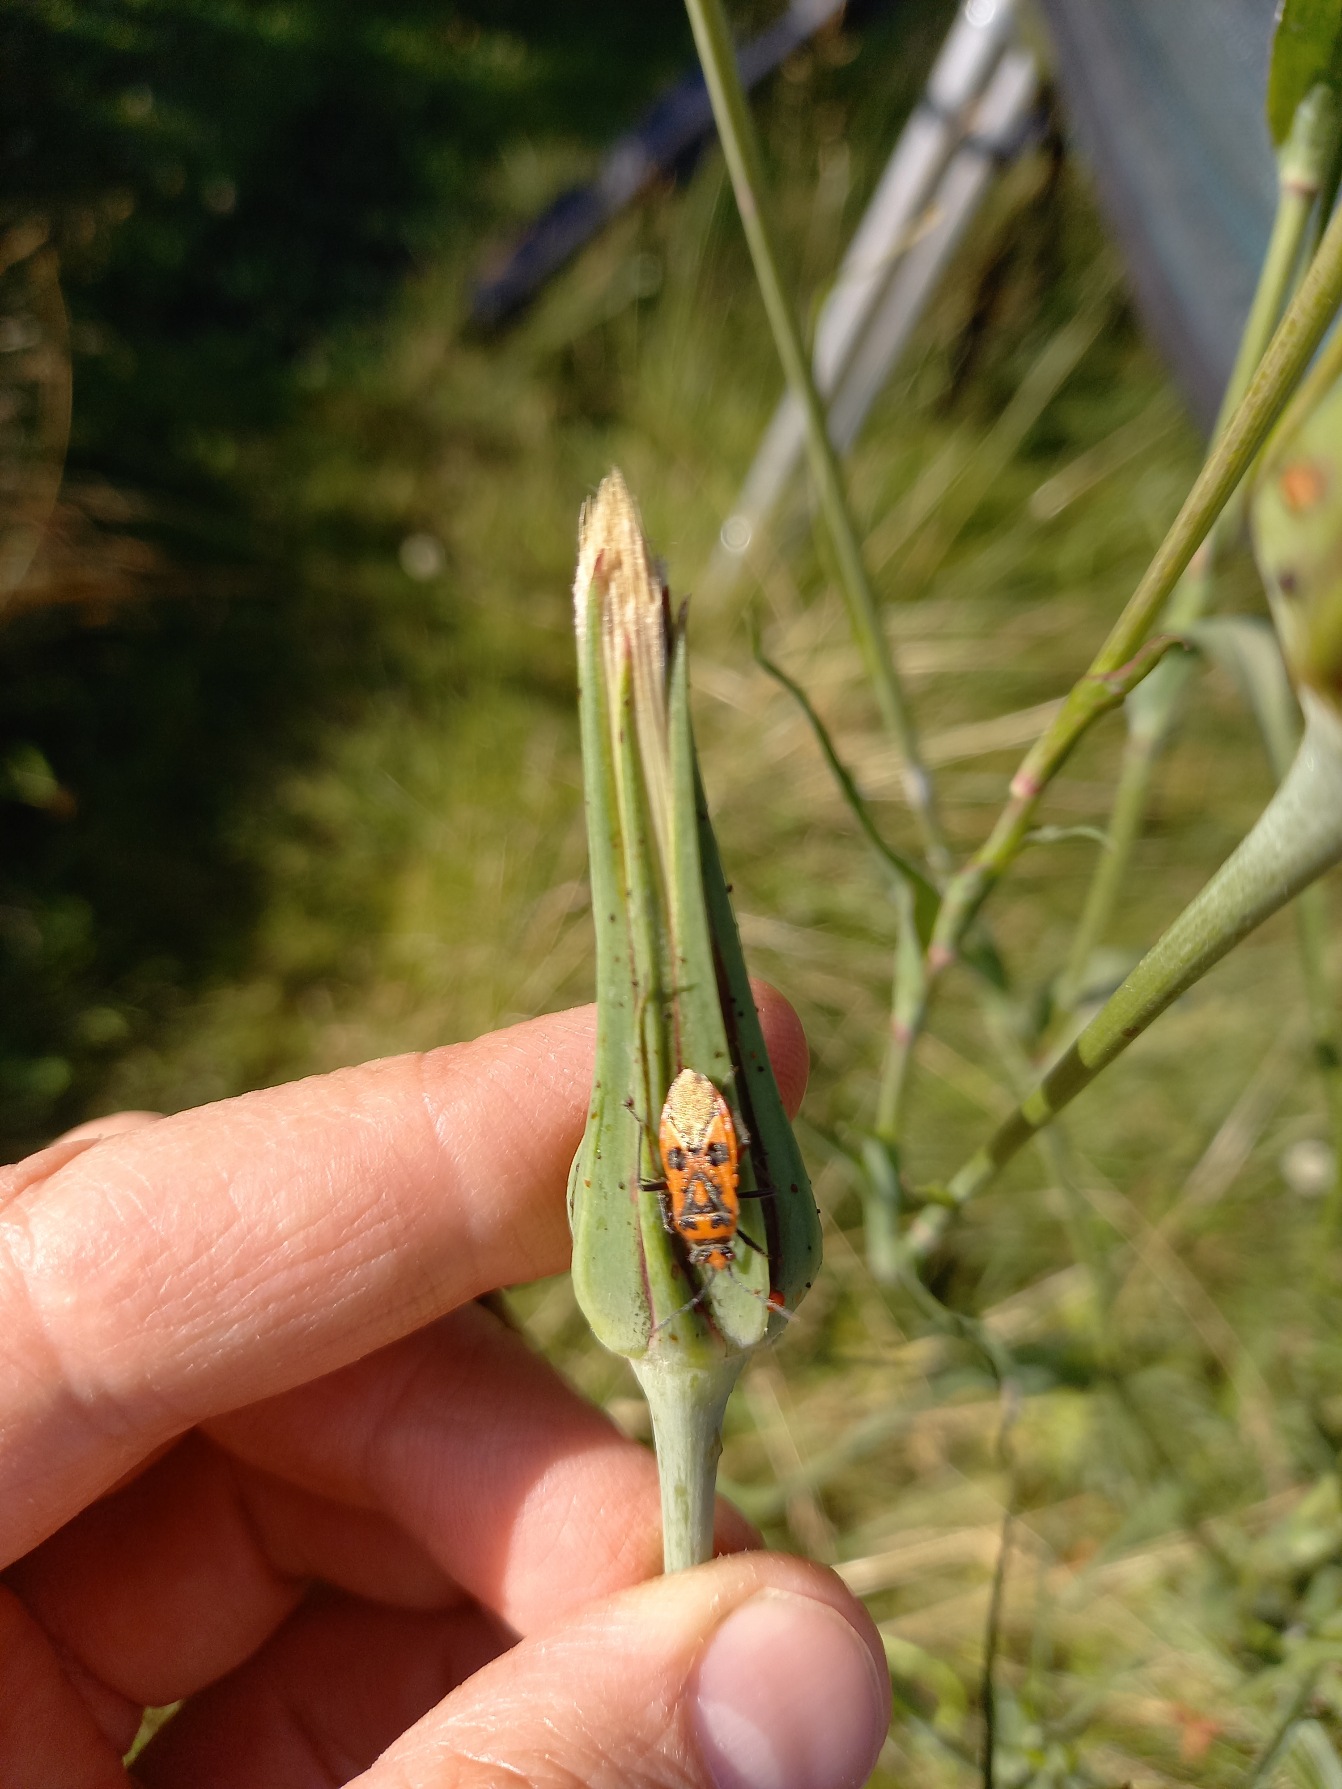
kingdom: Animalia
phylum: Arthropoda
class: Insecta
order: Hemiptera
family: Rhopalidae
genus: Corizus
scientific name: Corizus hyoscyami
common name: Rød kanttæge
